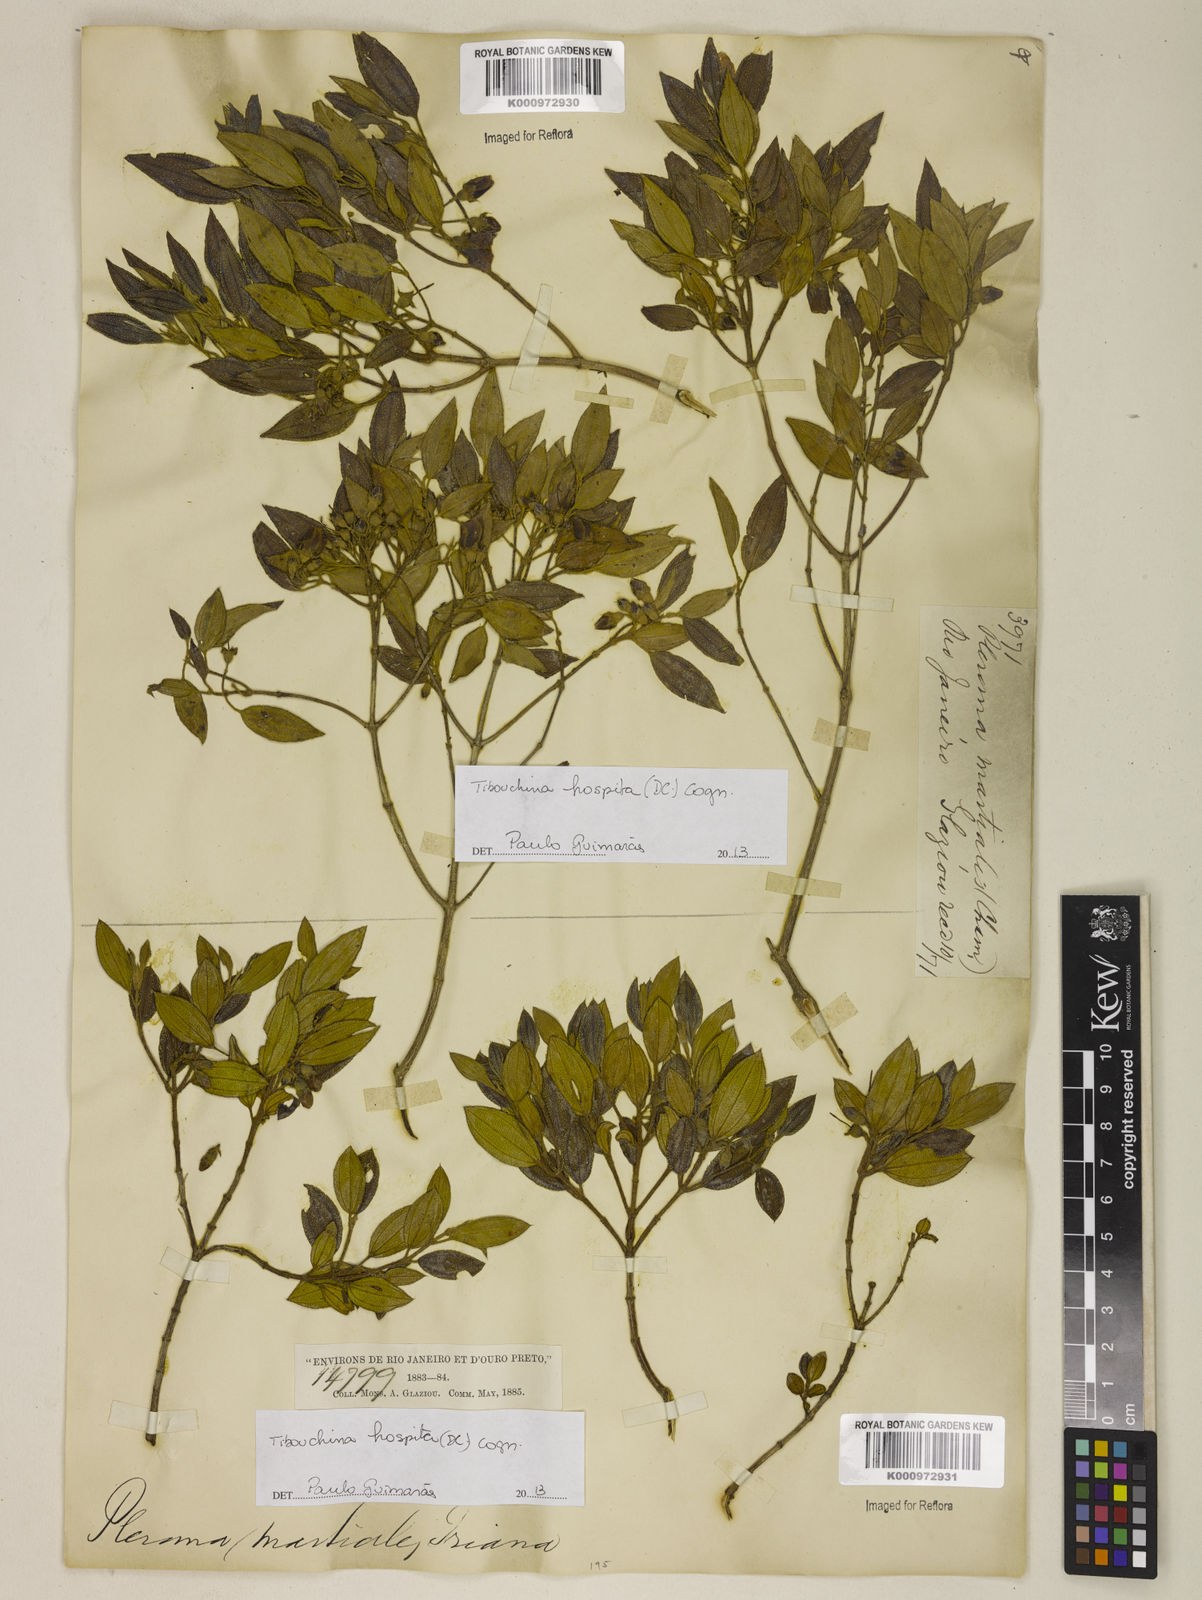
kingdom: Plantae
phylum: Tracheophyta
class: Magnoliopsida
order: Myrtales
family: Melastomataceae
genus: Pleroma
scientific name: Pleroma hospitum
